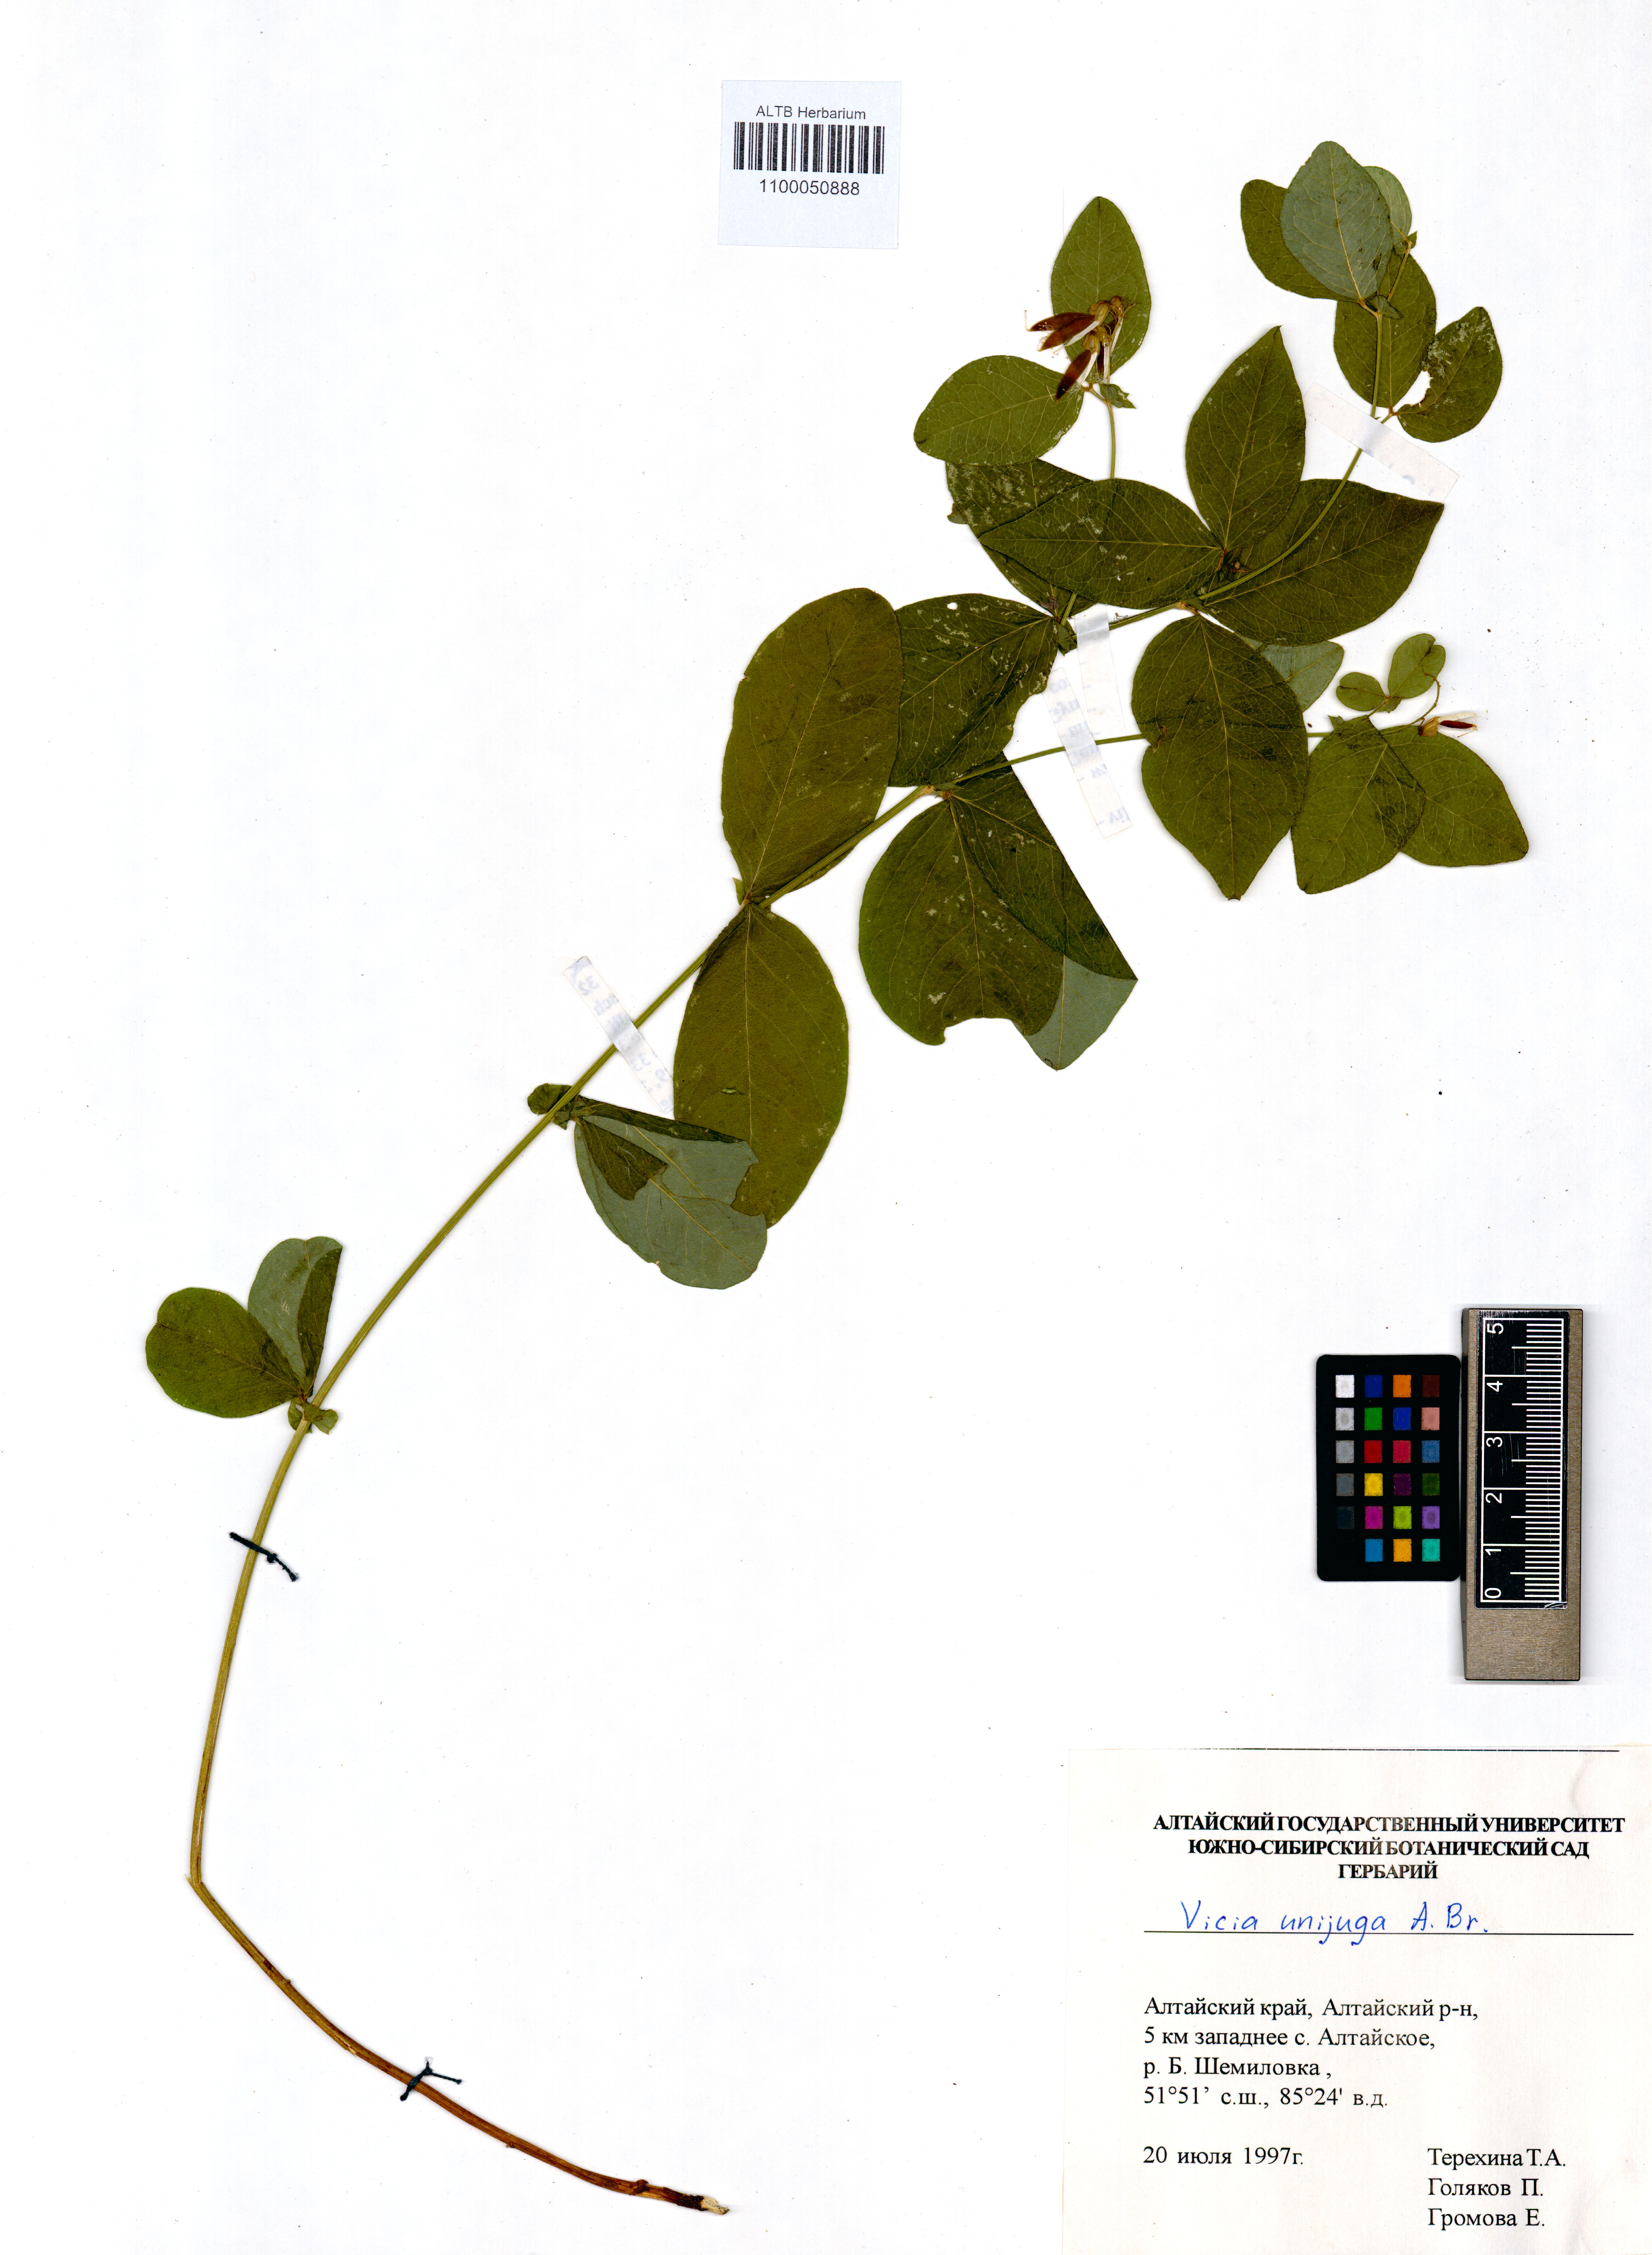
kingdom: Plantae
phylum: Tracheophyta
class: Magnoliopsida
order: Fabales
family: Fabaceae
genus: Vicia
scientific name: Vicia unijuga
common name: Two-leaf vetch
